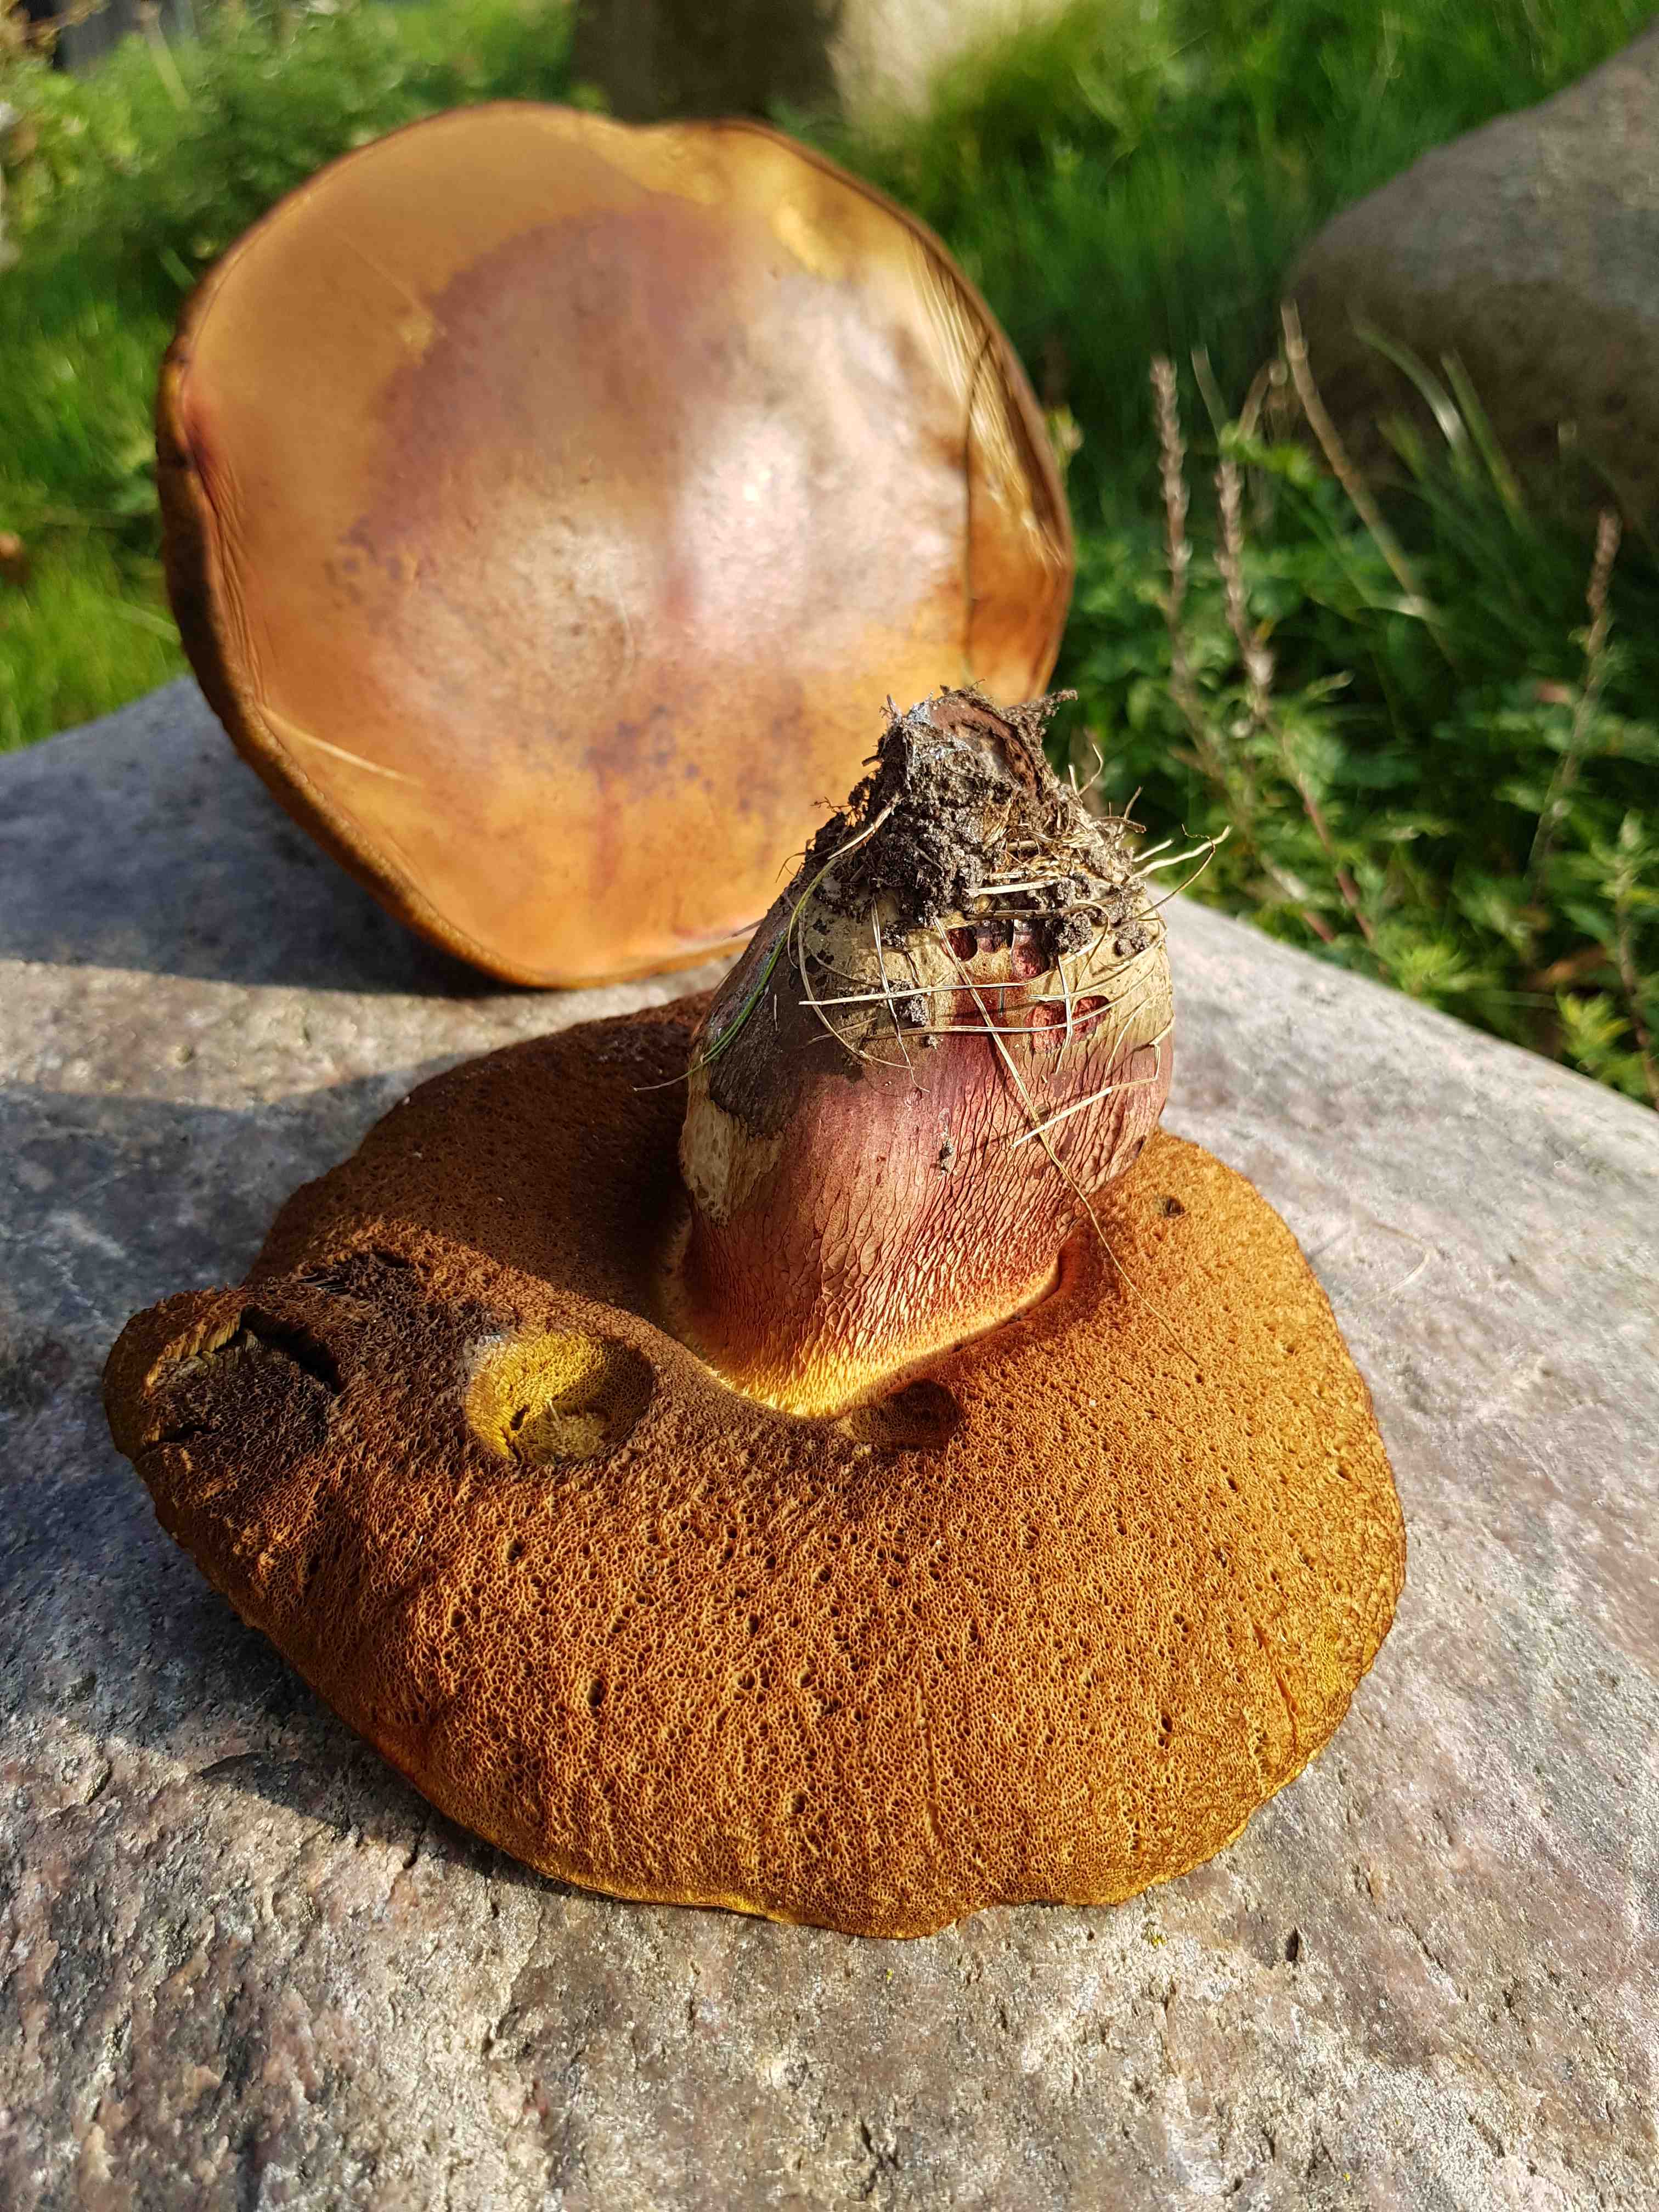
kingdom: Fungi
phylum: Basidiomycota
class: Agaricomycetes
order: Boletales
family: Boletaceae
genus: Suillellus
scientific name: Suillellus luridus
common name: netstokket indigorørhat
